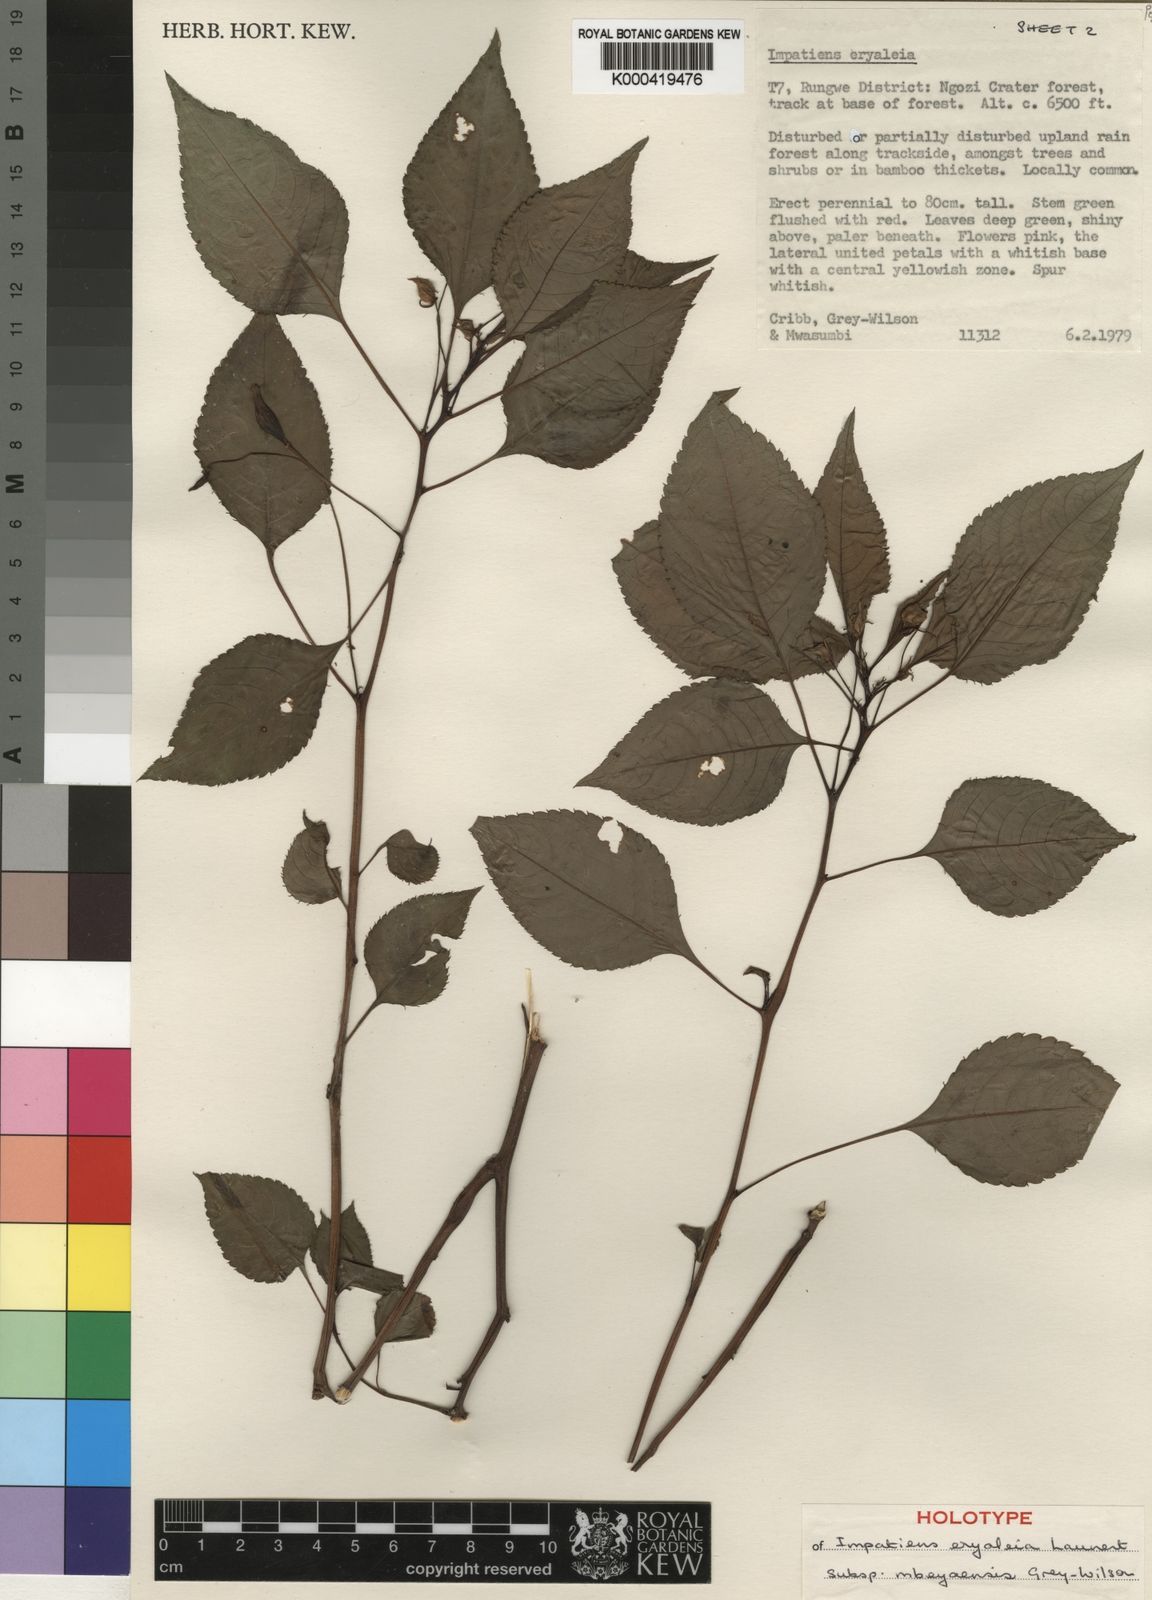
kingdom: Plantae
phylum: Tracheophyta
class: Magnoliopsida
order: Ericales
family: Balsaminaceae
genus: Impatiens
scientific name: Impatiens eryaleia
